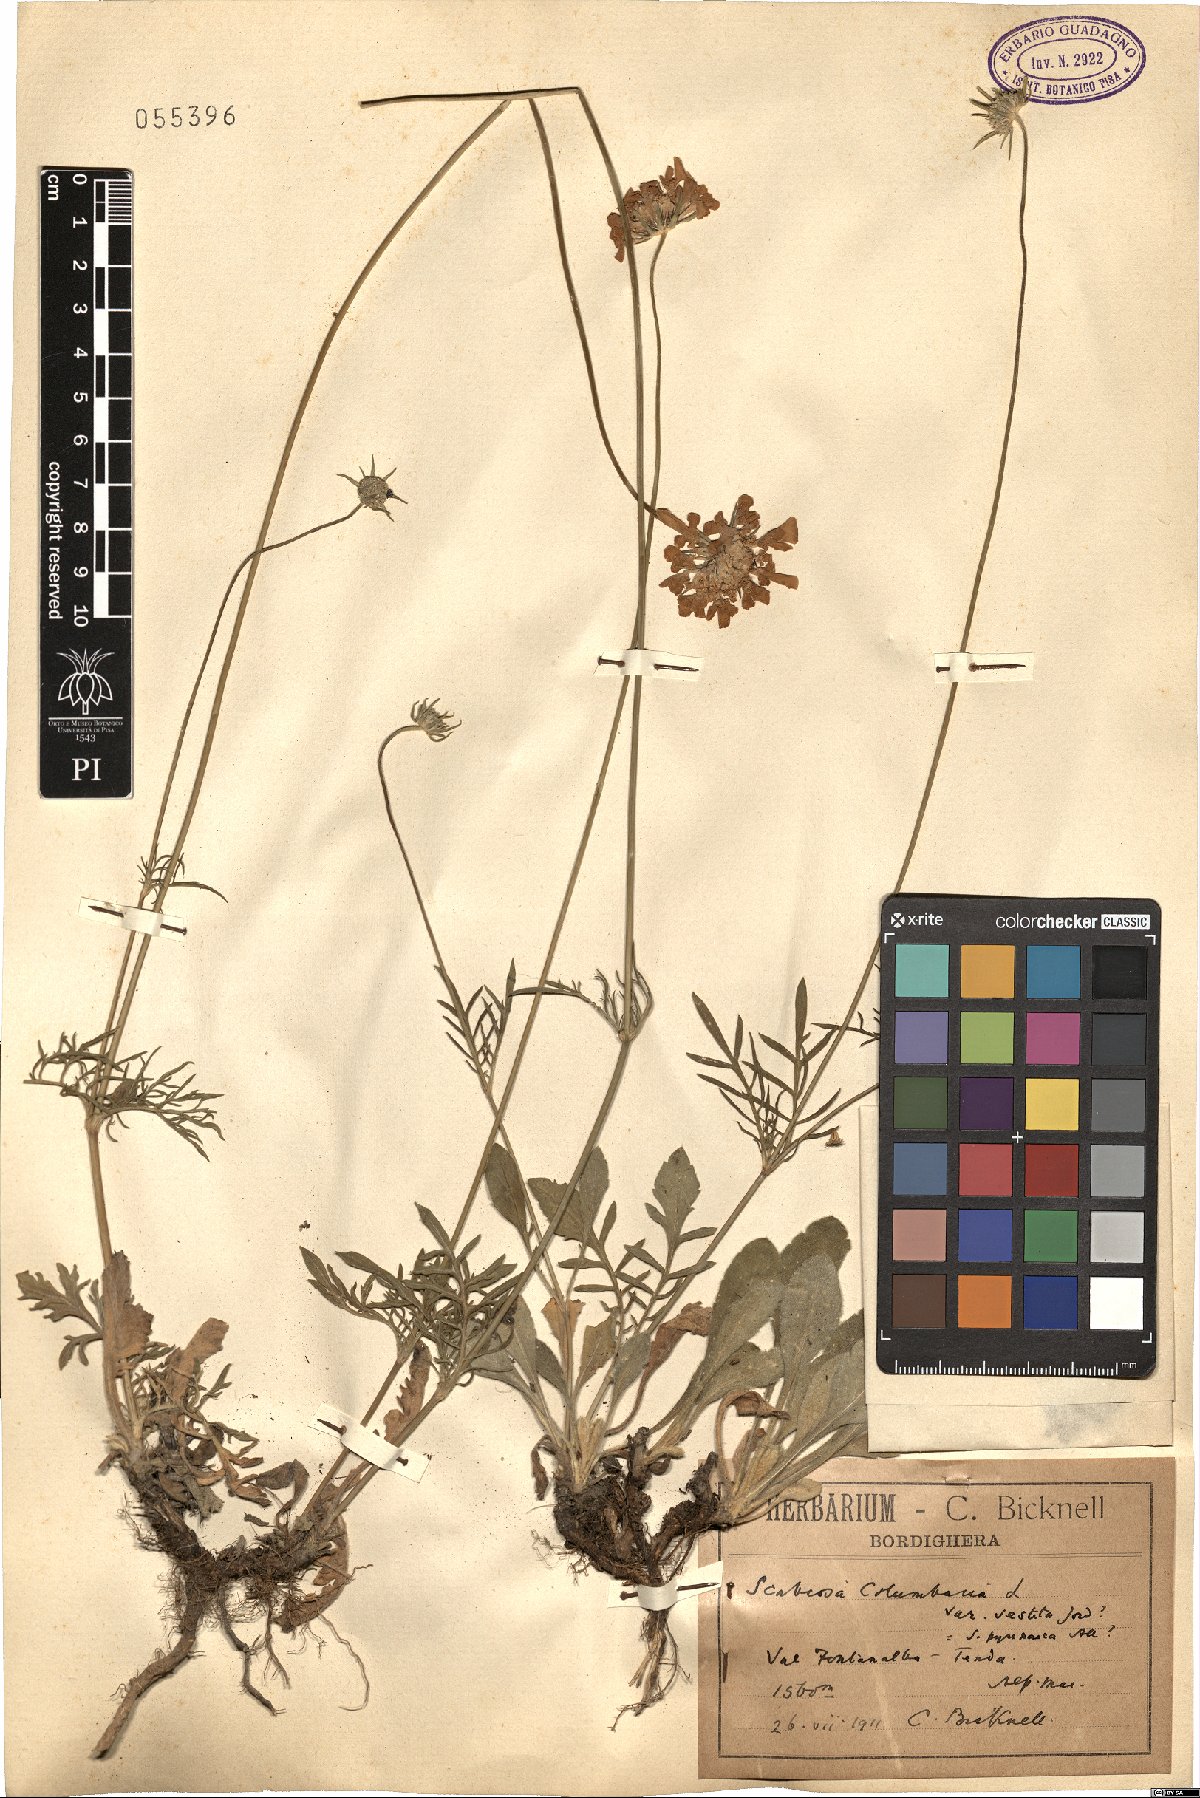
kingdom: Plantae
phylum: Tracheophyta
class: Magnoliopsida
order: Dipsacales
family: Caprifoliaceae
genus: Scabiosa
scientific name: Scabiosa columbaria
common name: Small scabious
